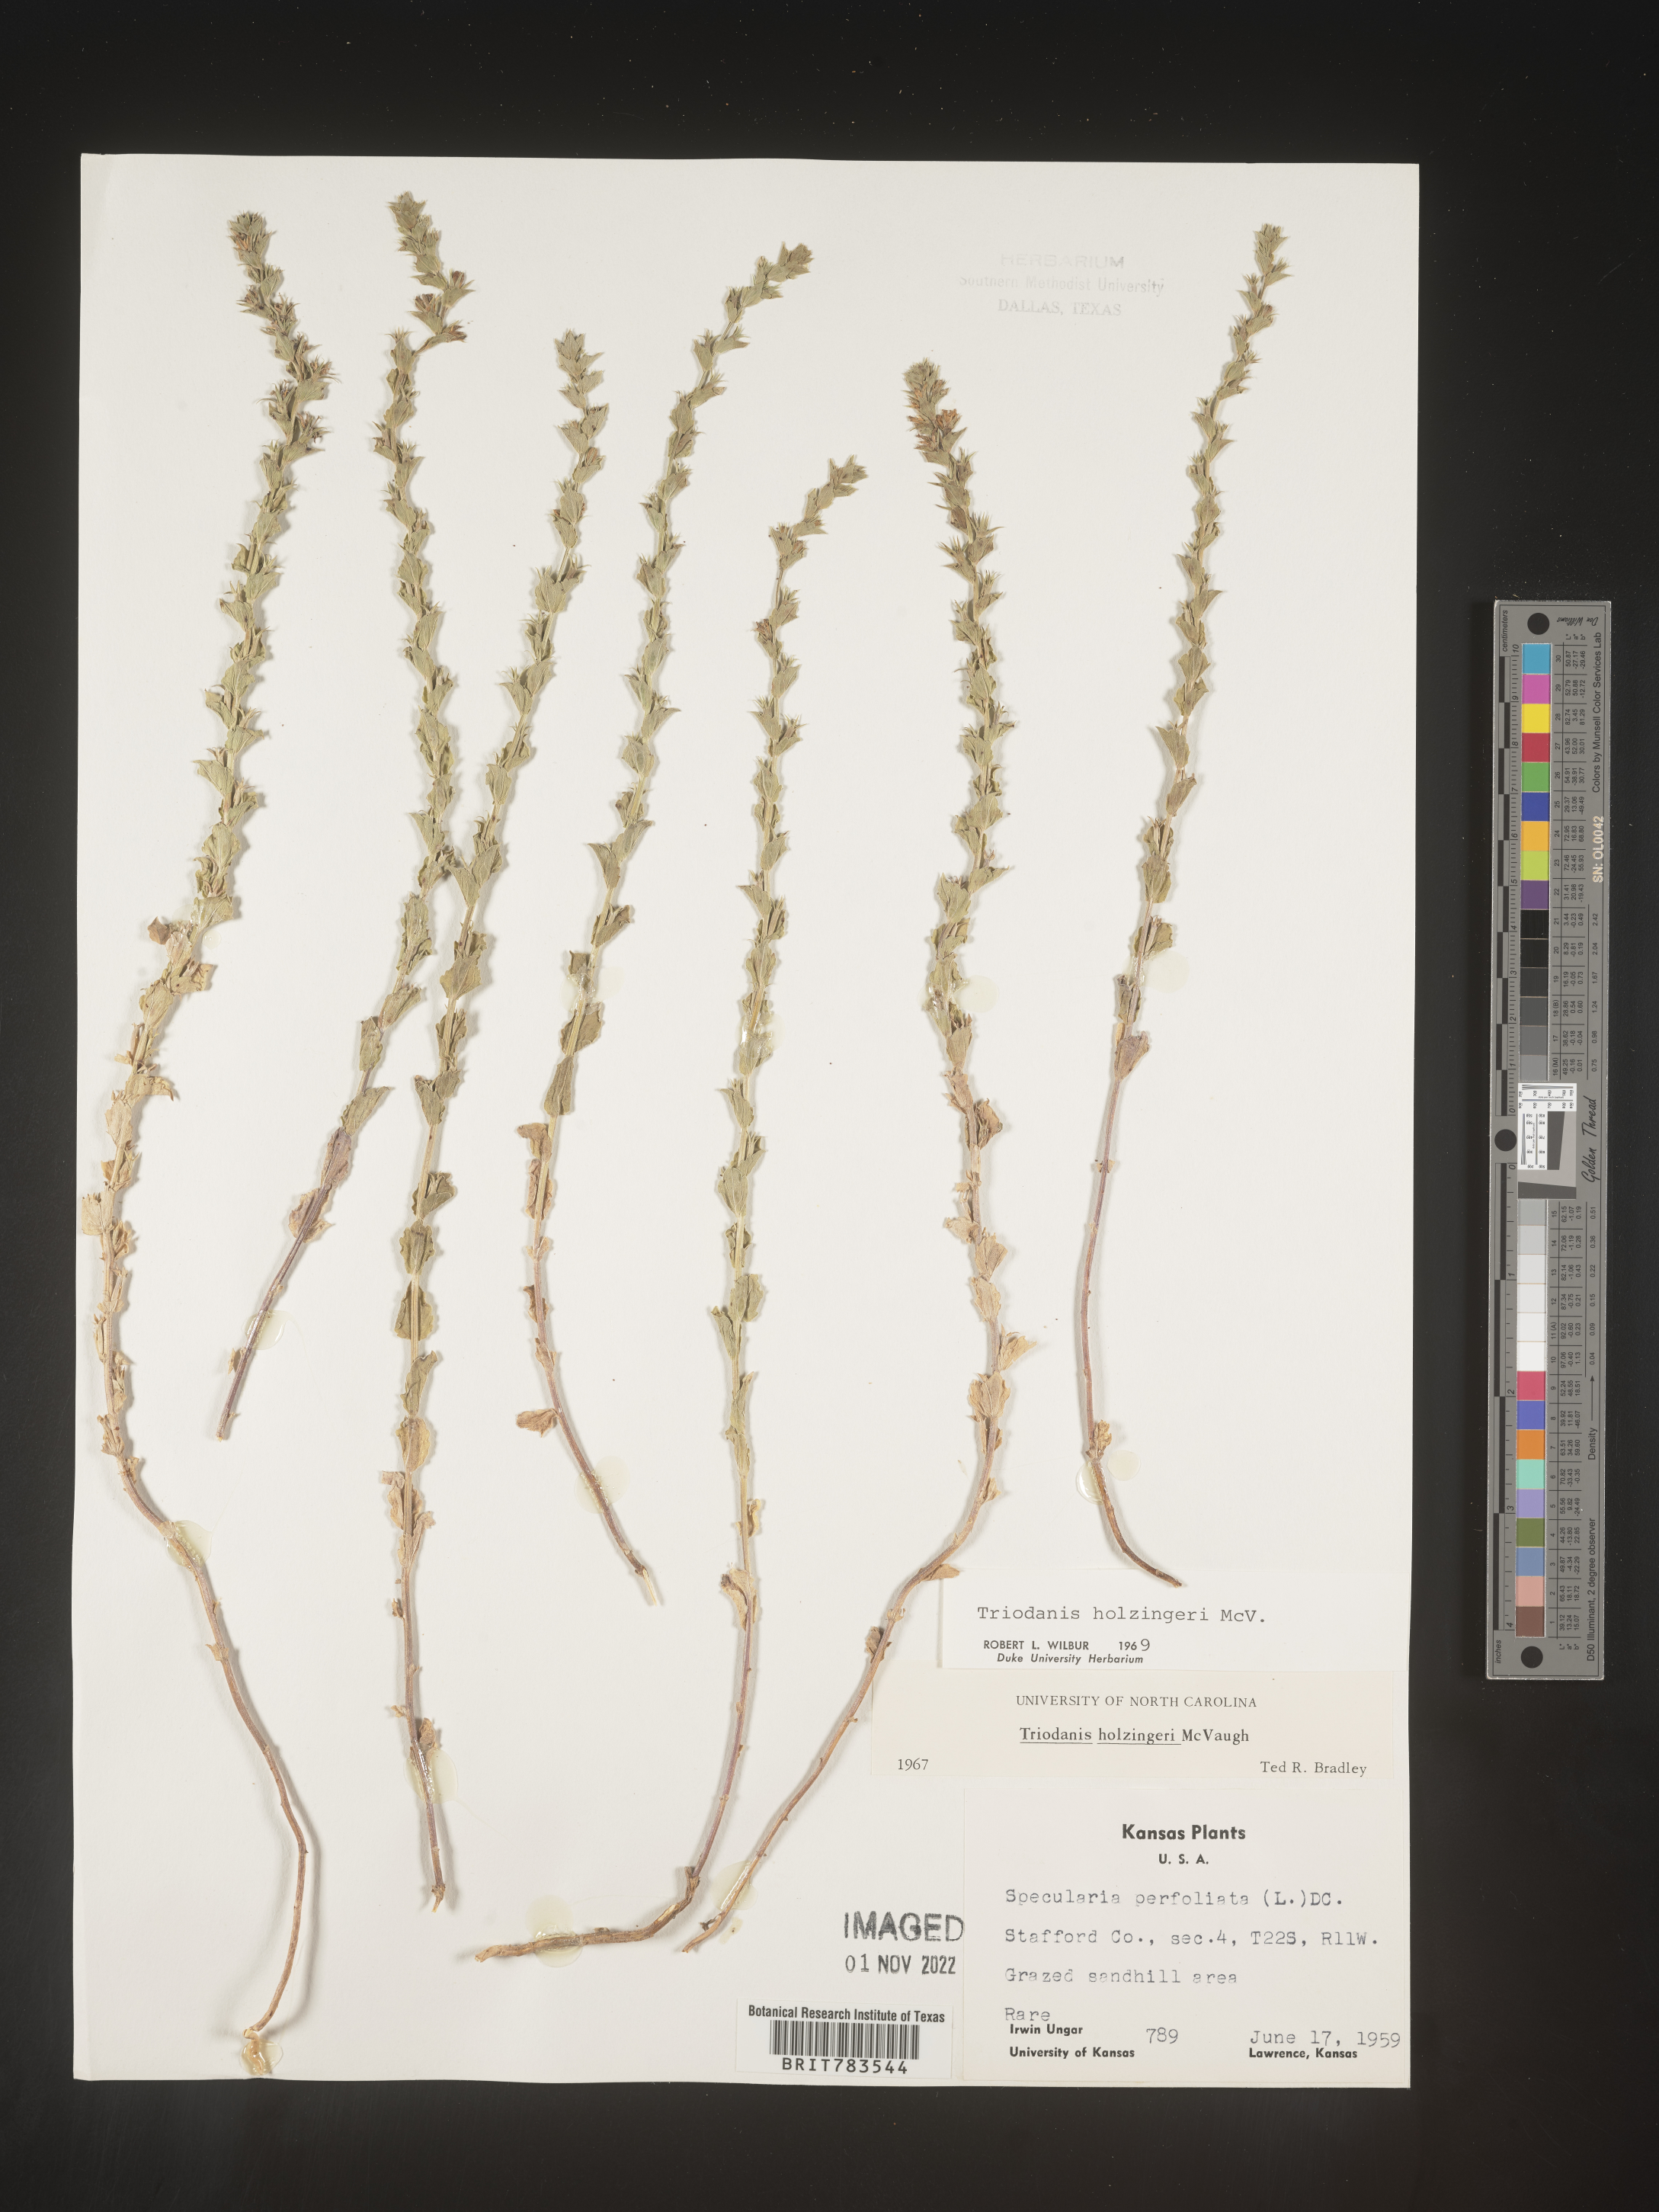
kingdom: Plantae
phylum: Tracheophyta
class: Magnoliopsida
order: Asterales
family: Campanulaceae
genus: Triodanis
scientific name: Triodanis holzingeri
